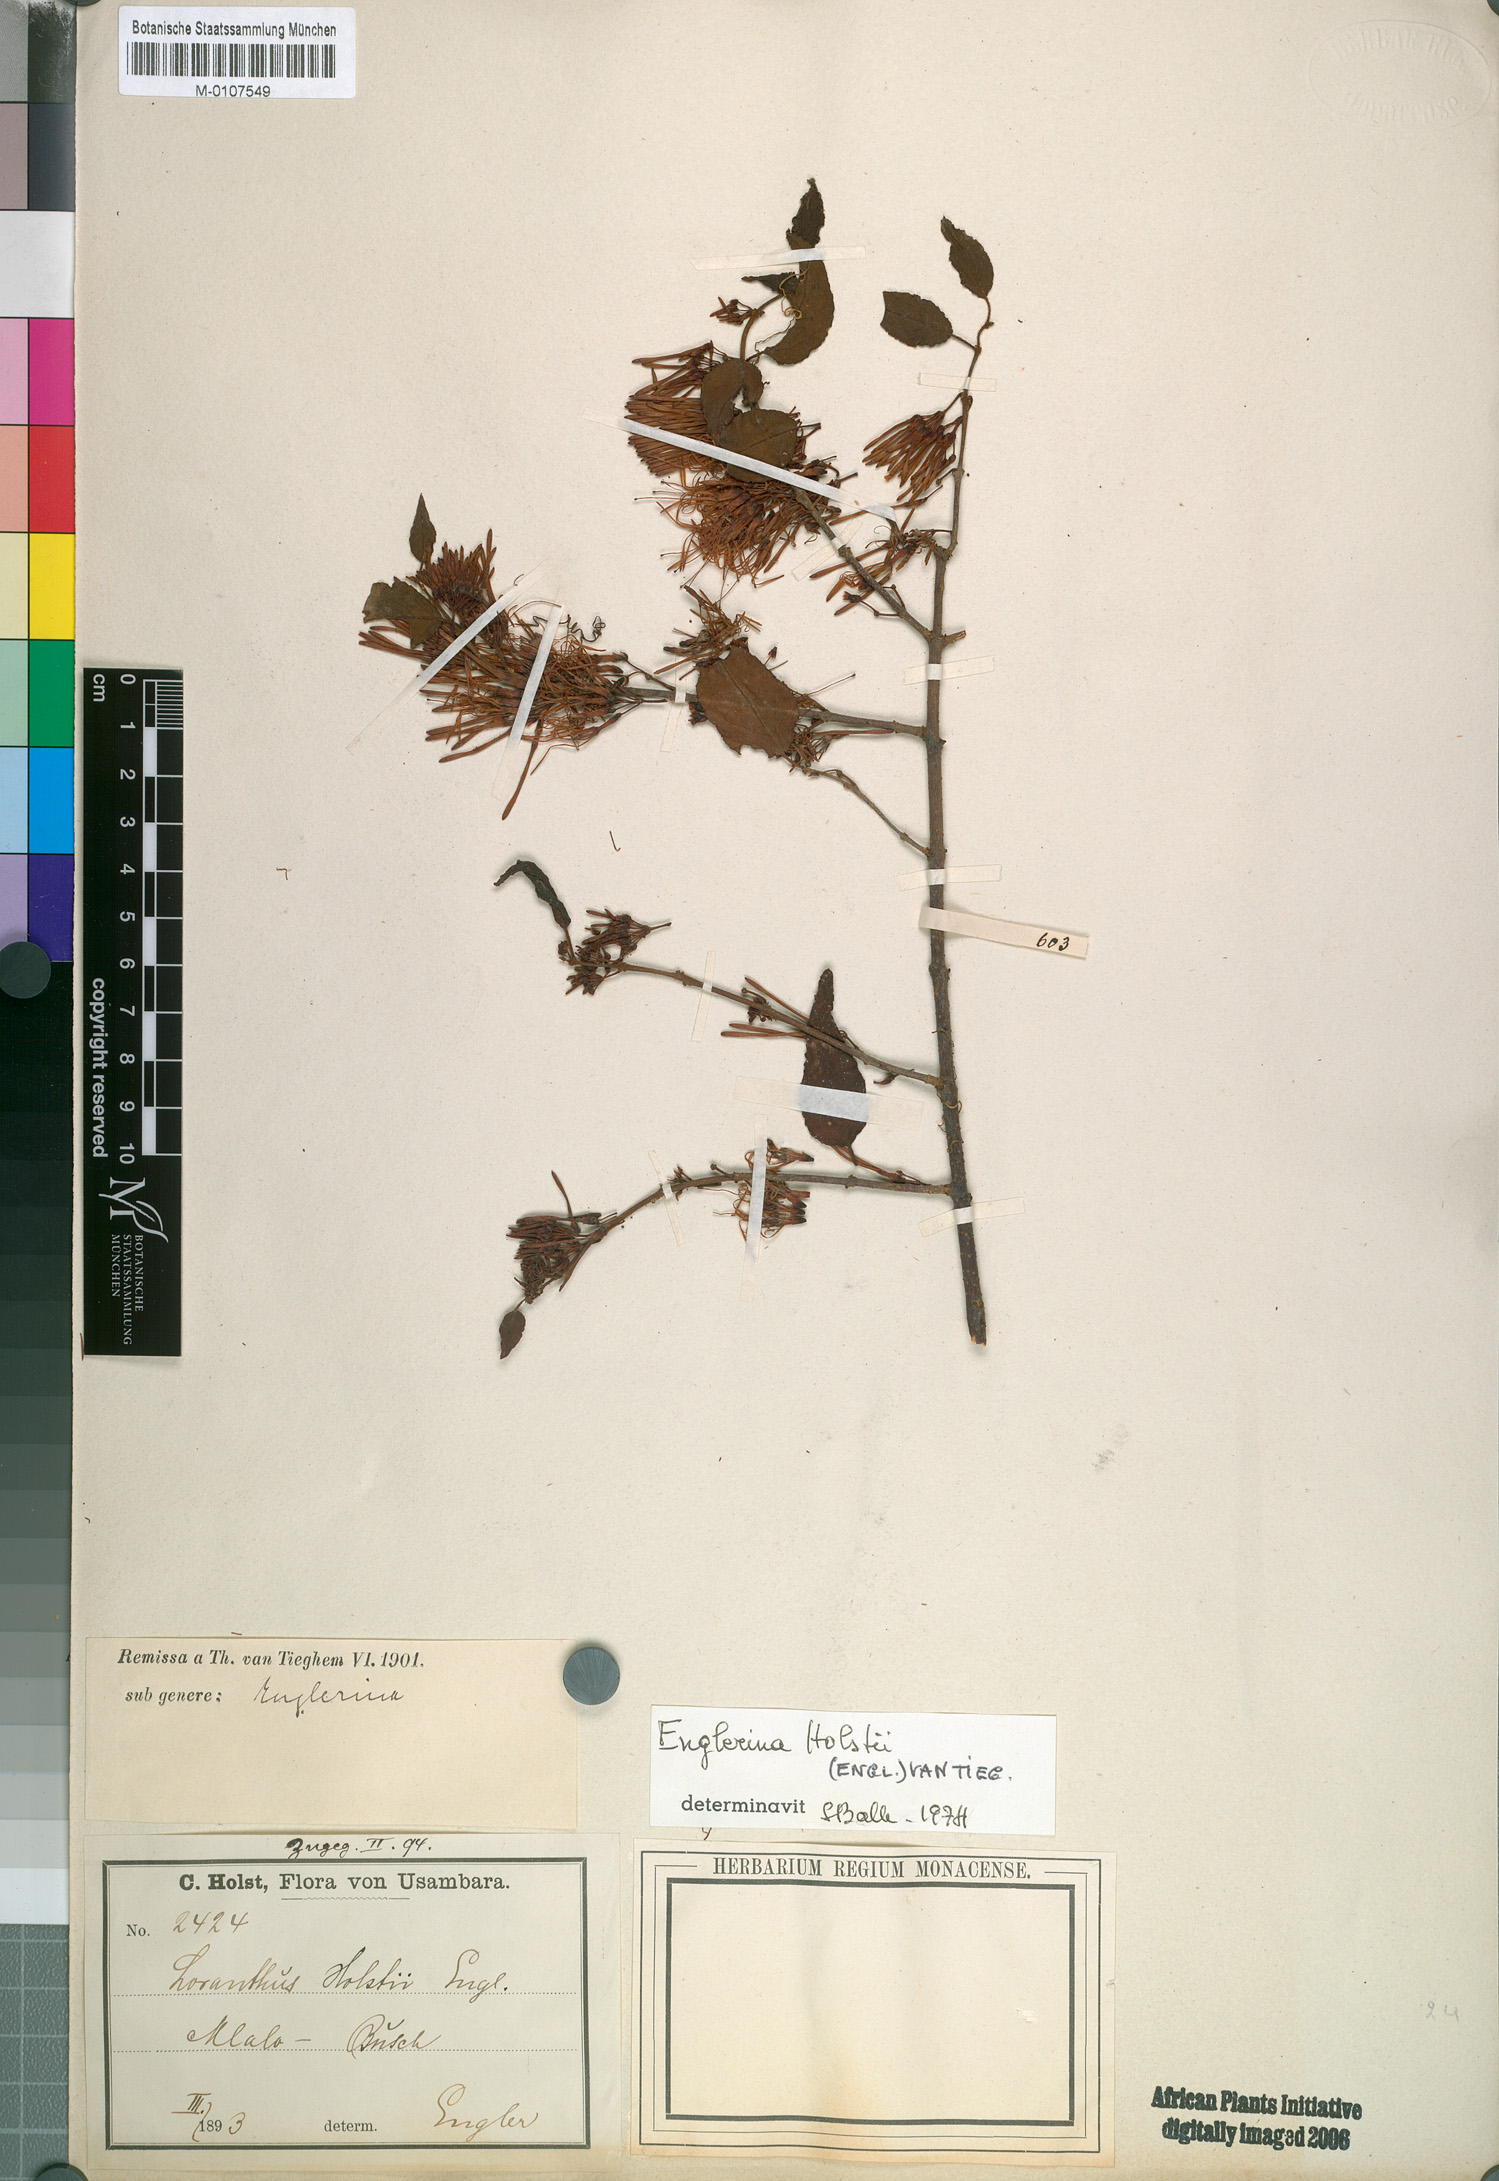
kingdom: Plantae
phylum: Tracheophyta
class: Magnoliopsida
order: Santalales
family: Loranthaceae
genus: Englerina
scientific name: Englerina holstii
